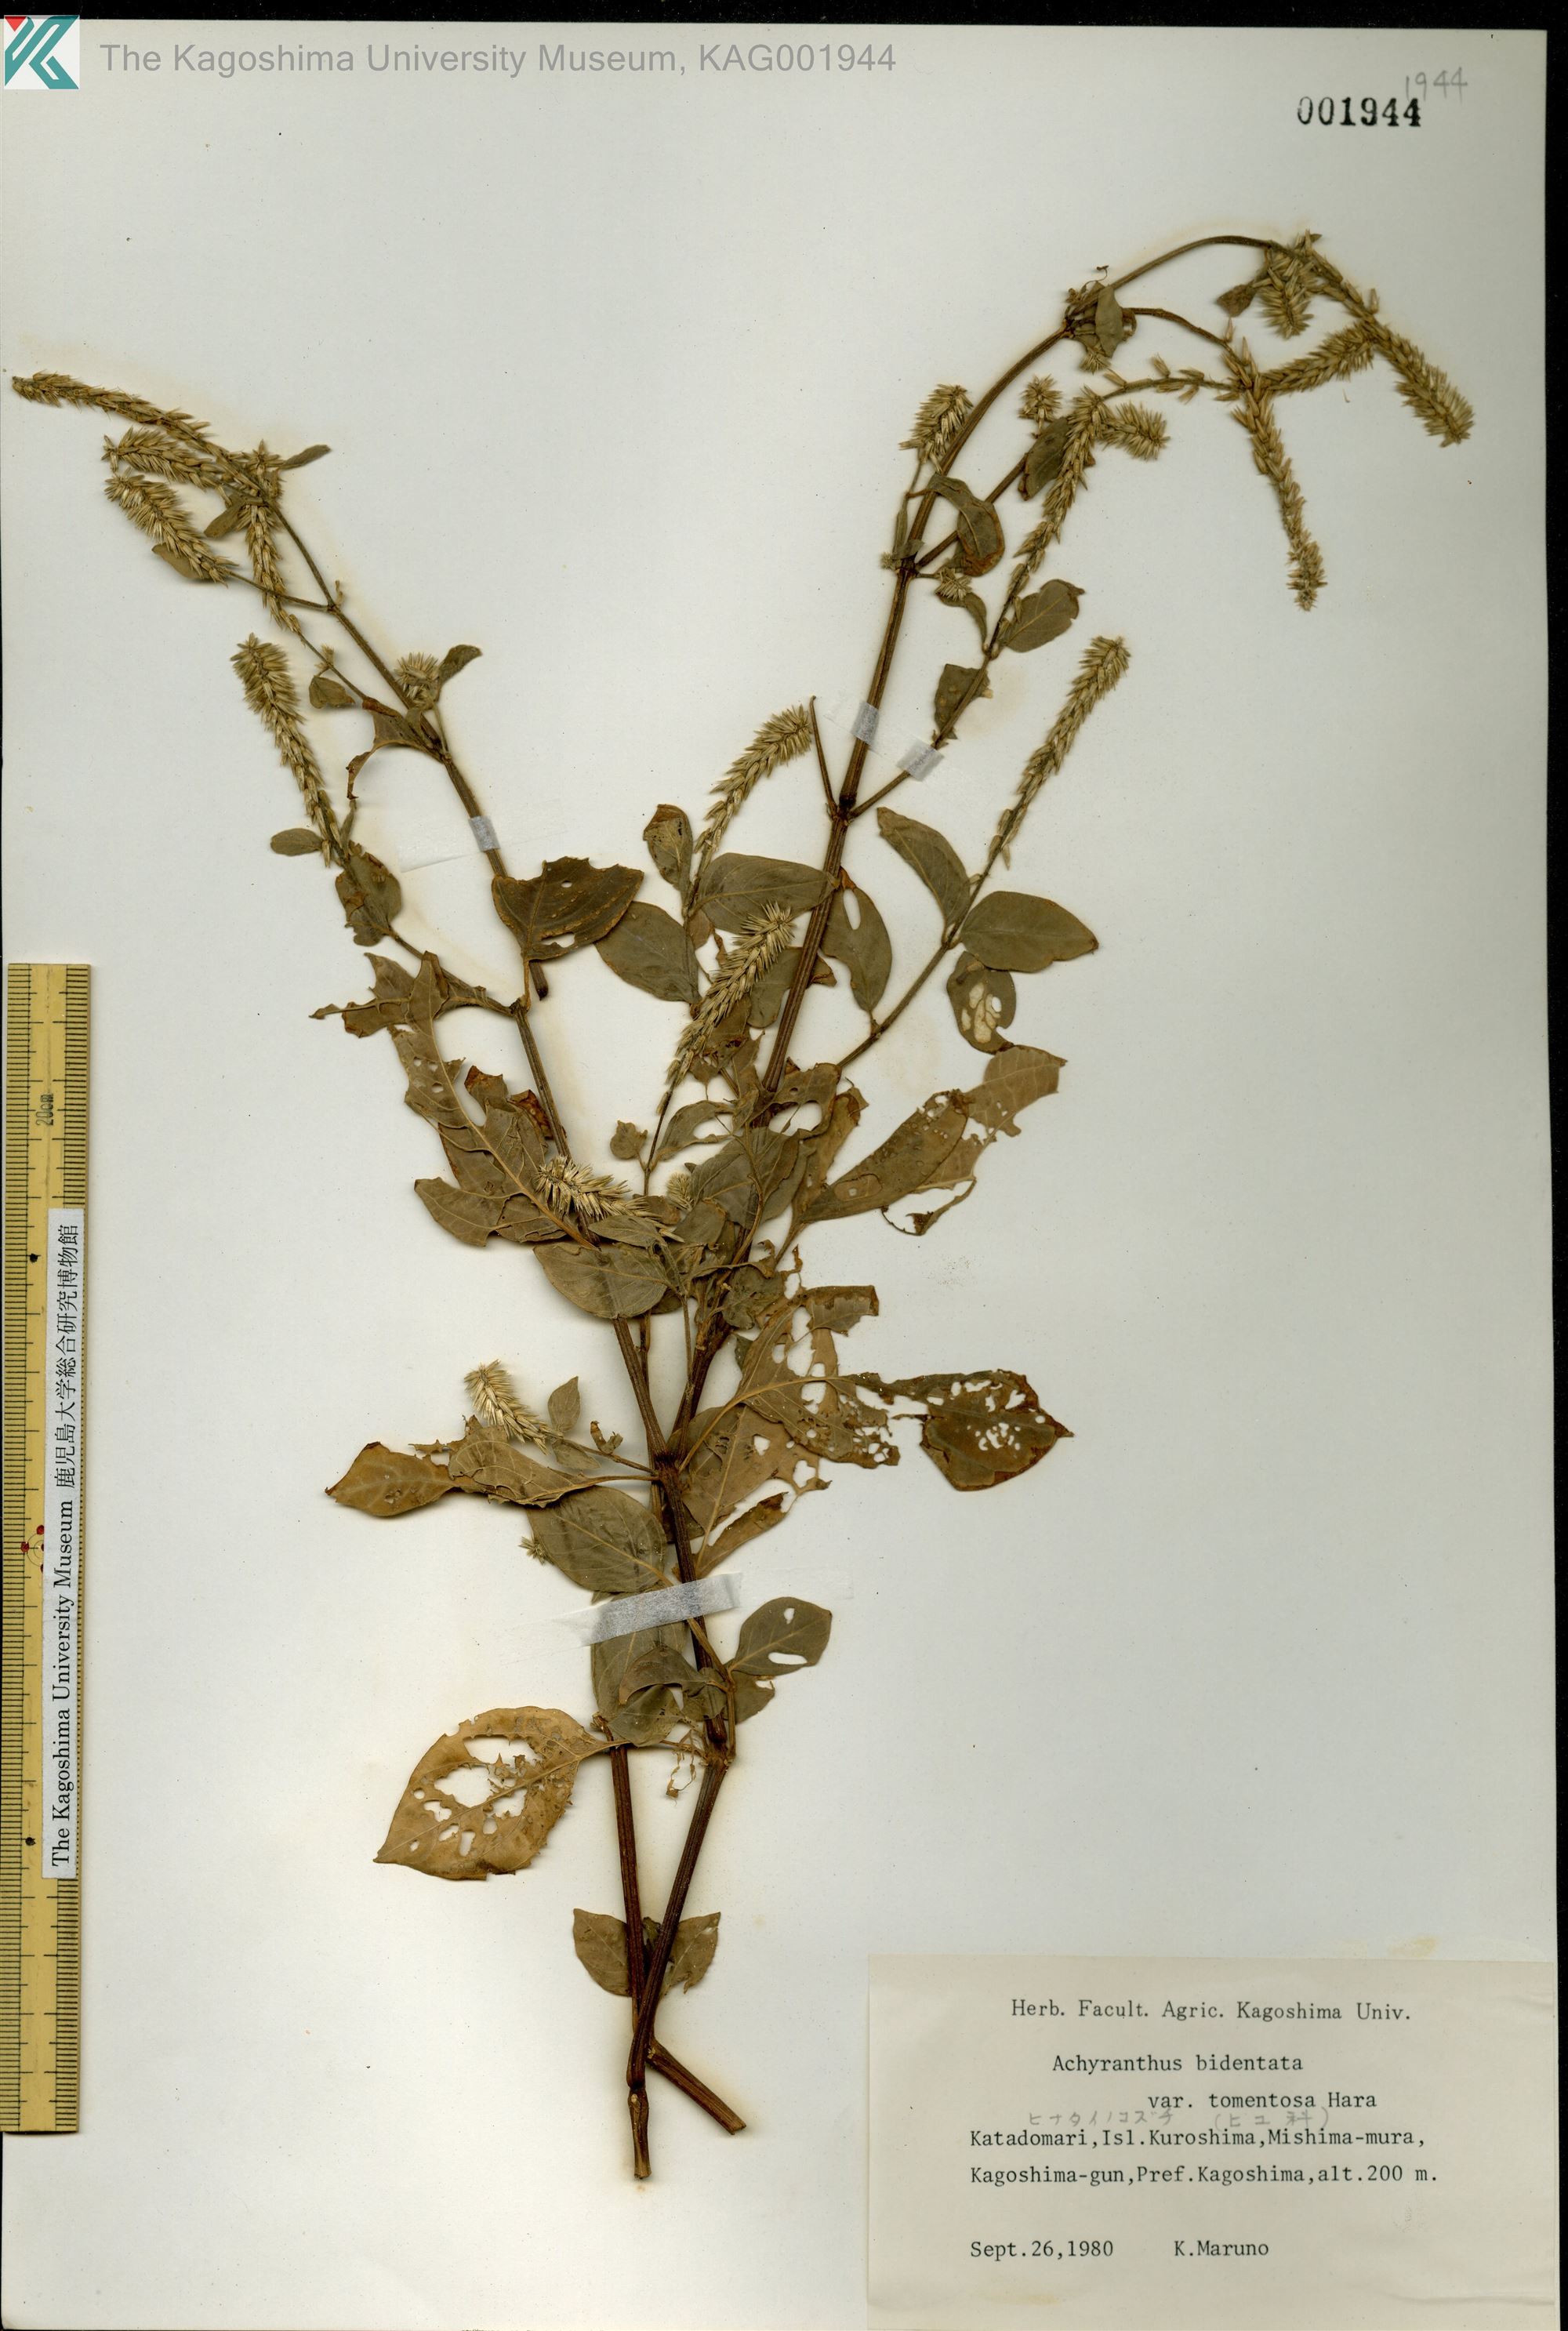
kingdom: Plantae
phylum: Tracheophyta
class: Magnoliopsida
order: Caryophyllales
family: Amaranthaceae
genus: Achyranthes
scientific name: Achyranthes bidentata
